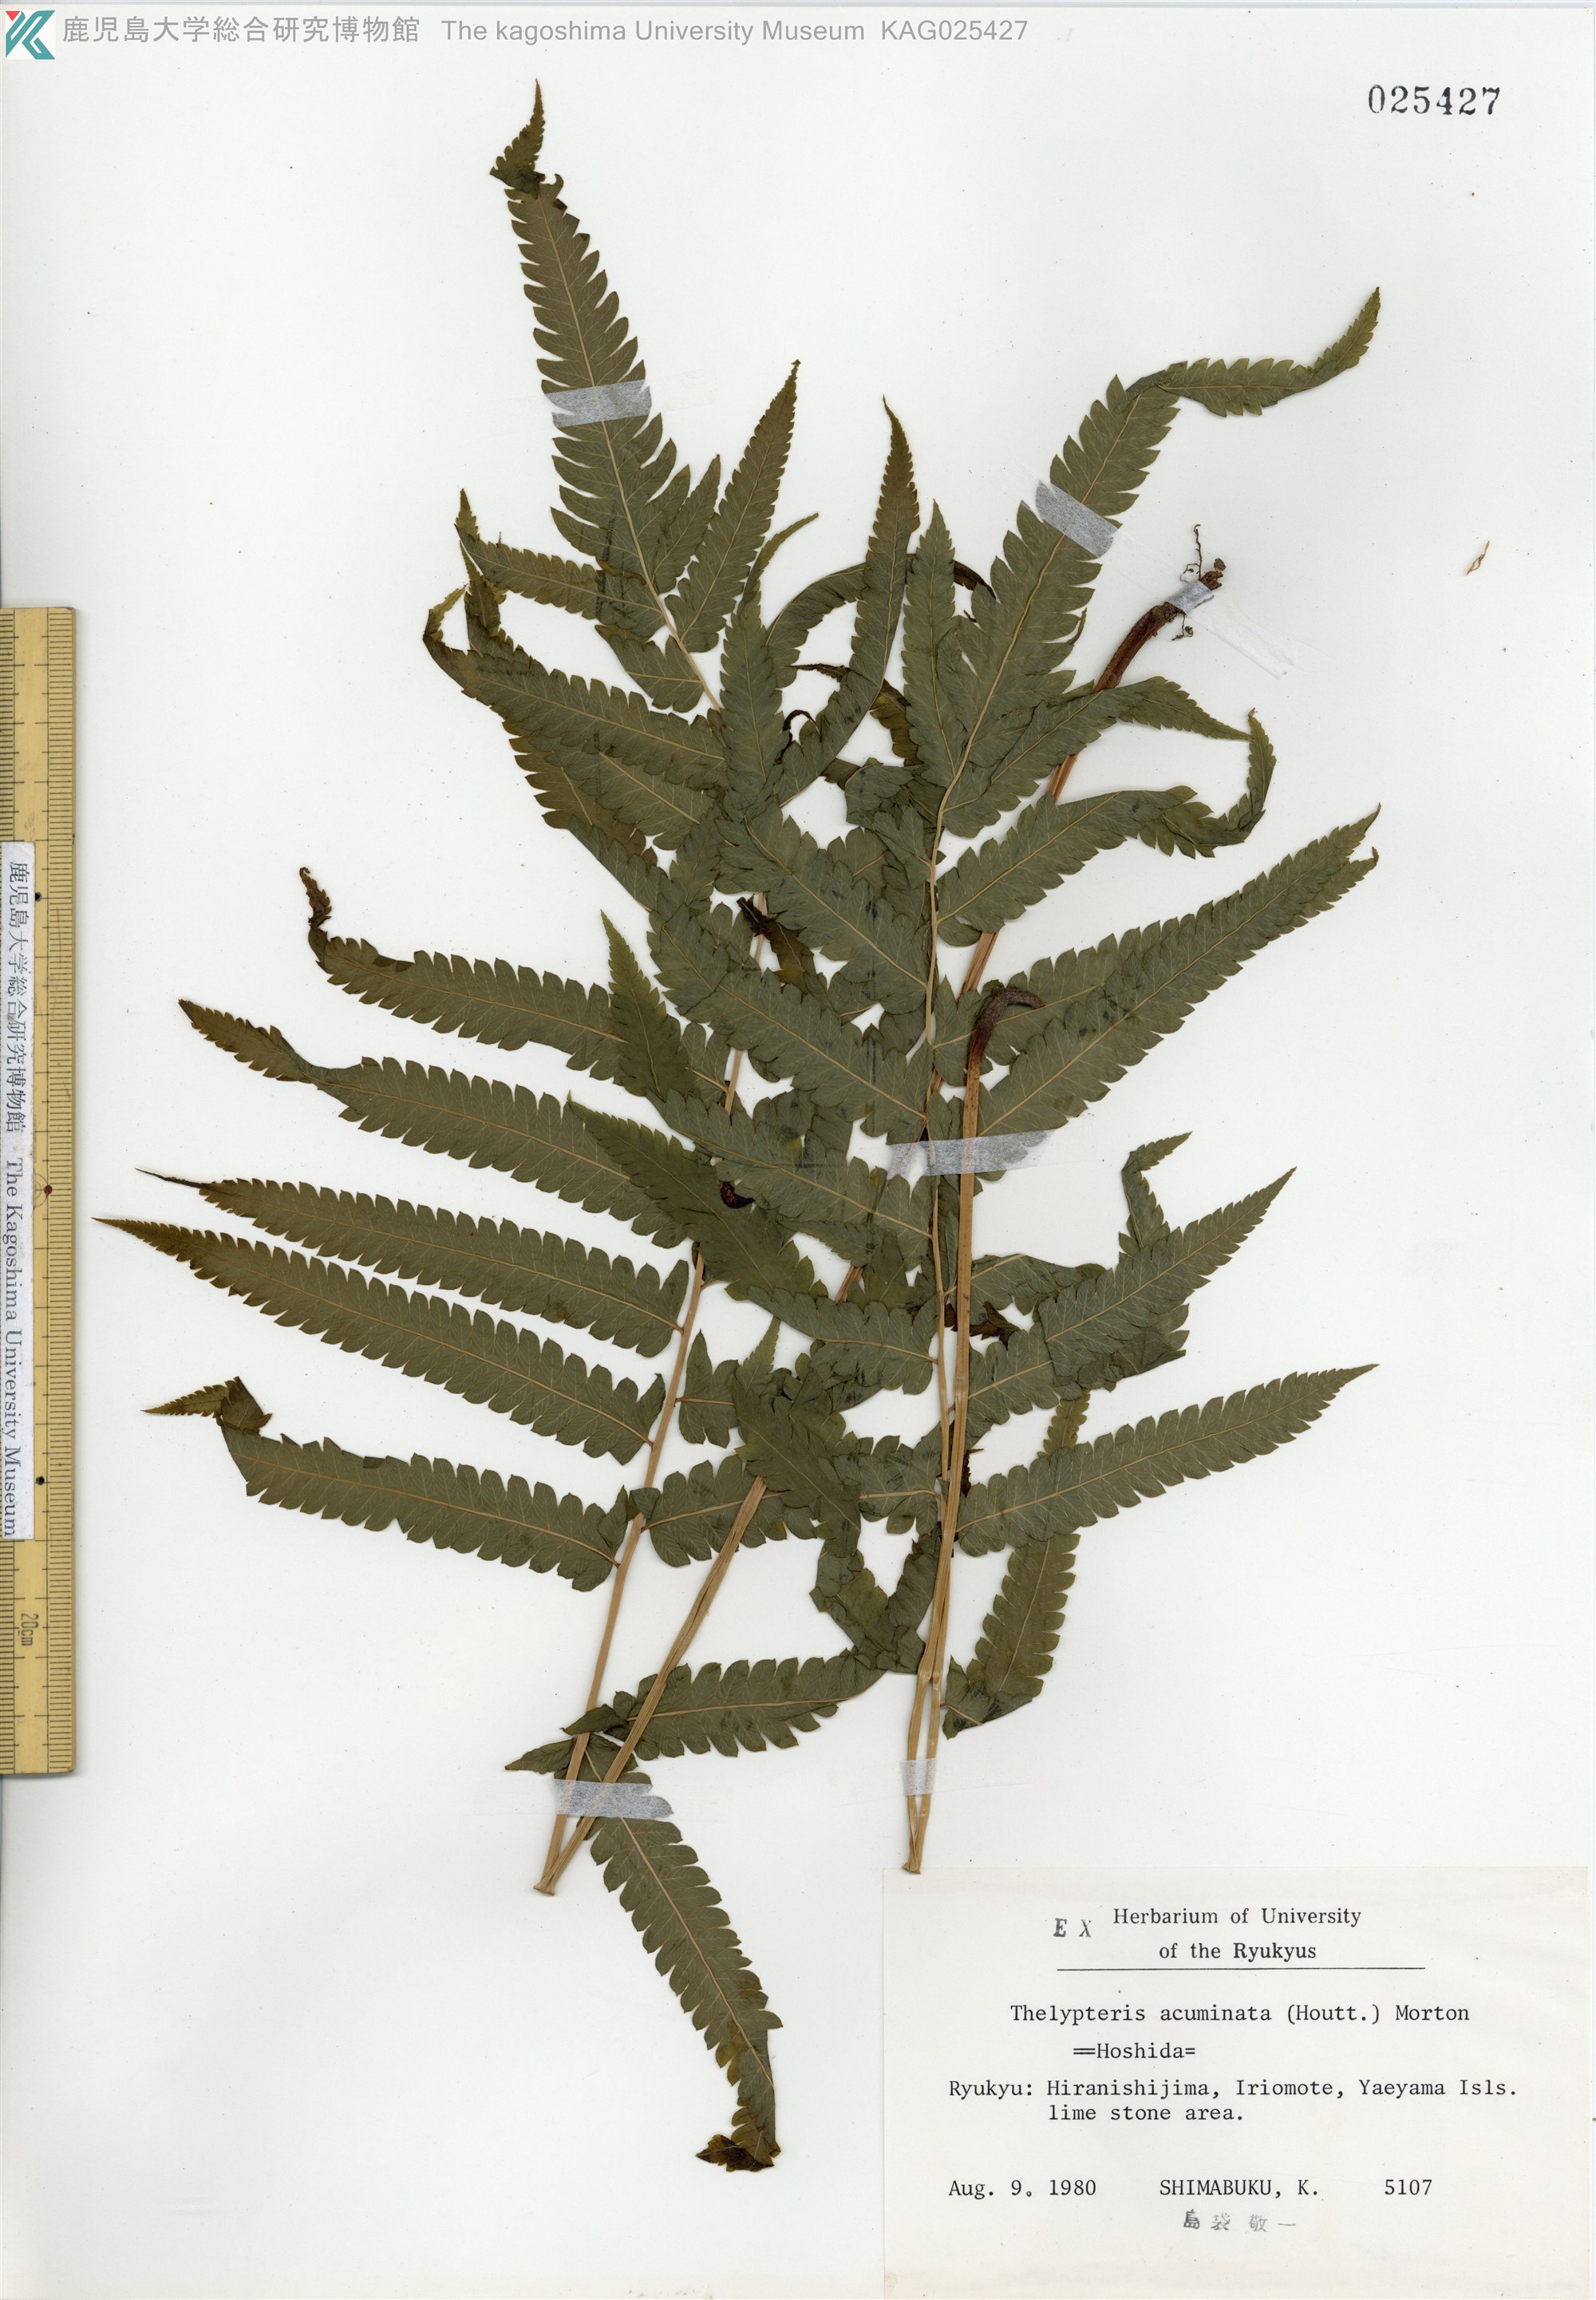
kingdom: Plantae
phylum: Tracheophyta
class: Polypodiopsida
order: Polypodiales
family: Thelypteridaceae
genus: Christella
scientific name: Christella acuminata
